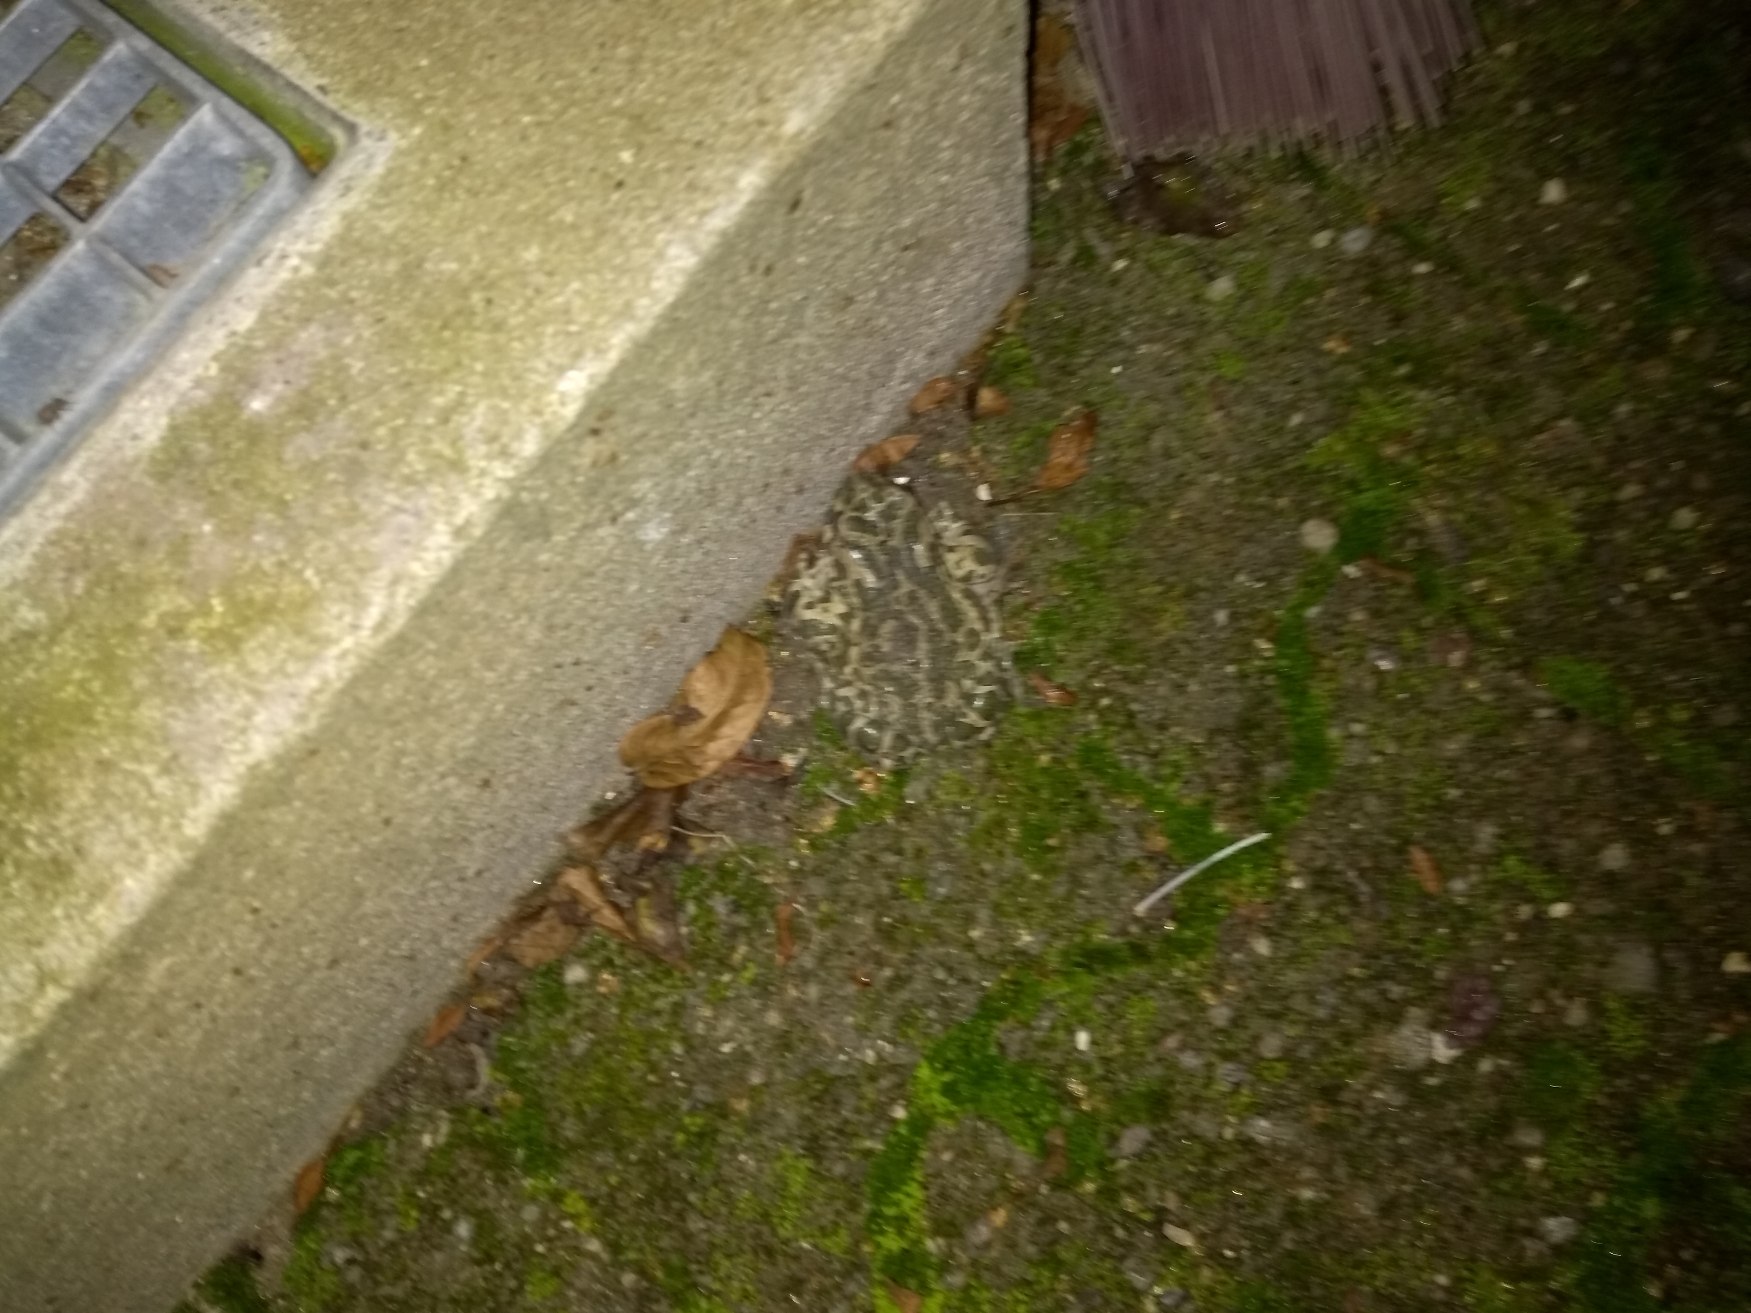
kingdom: Animalia
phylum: Chordata
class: Amphibia
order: Anura
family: Bufonidae
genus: Bufotes
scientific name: Bufotes viridis
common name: Grønbroget tudse
